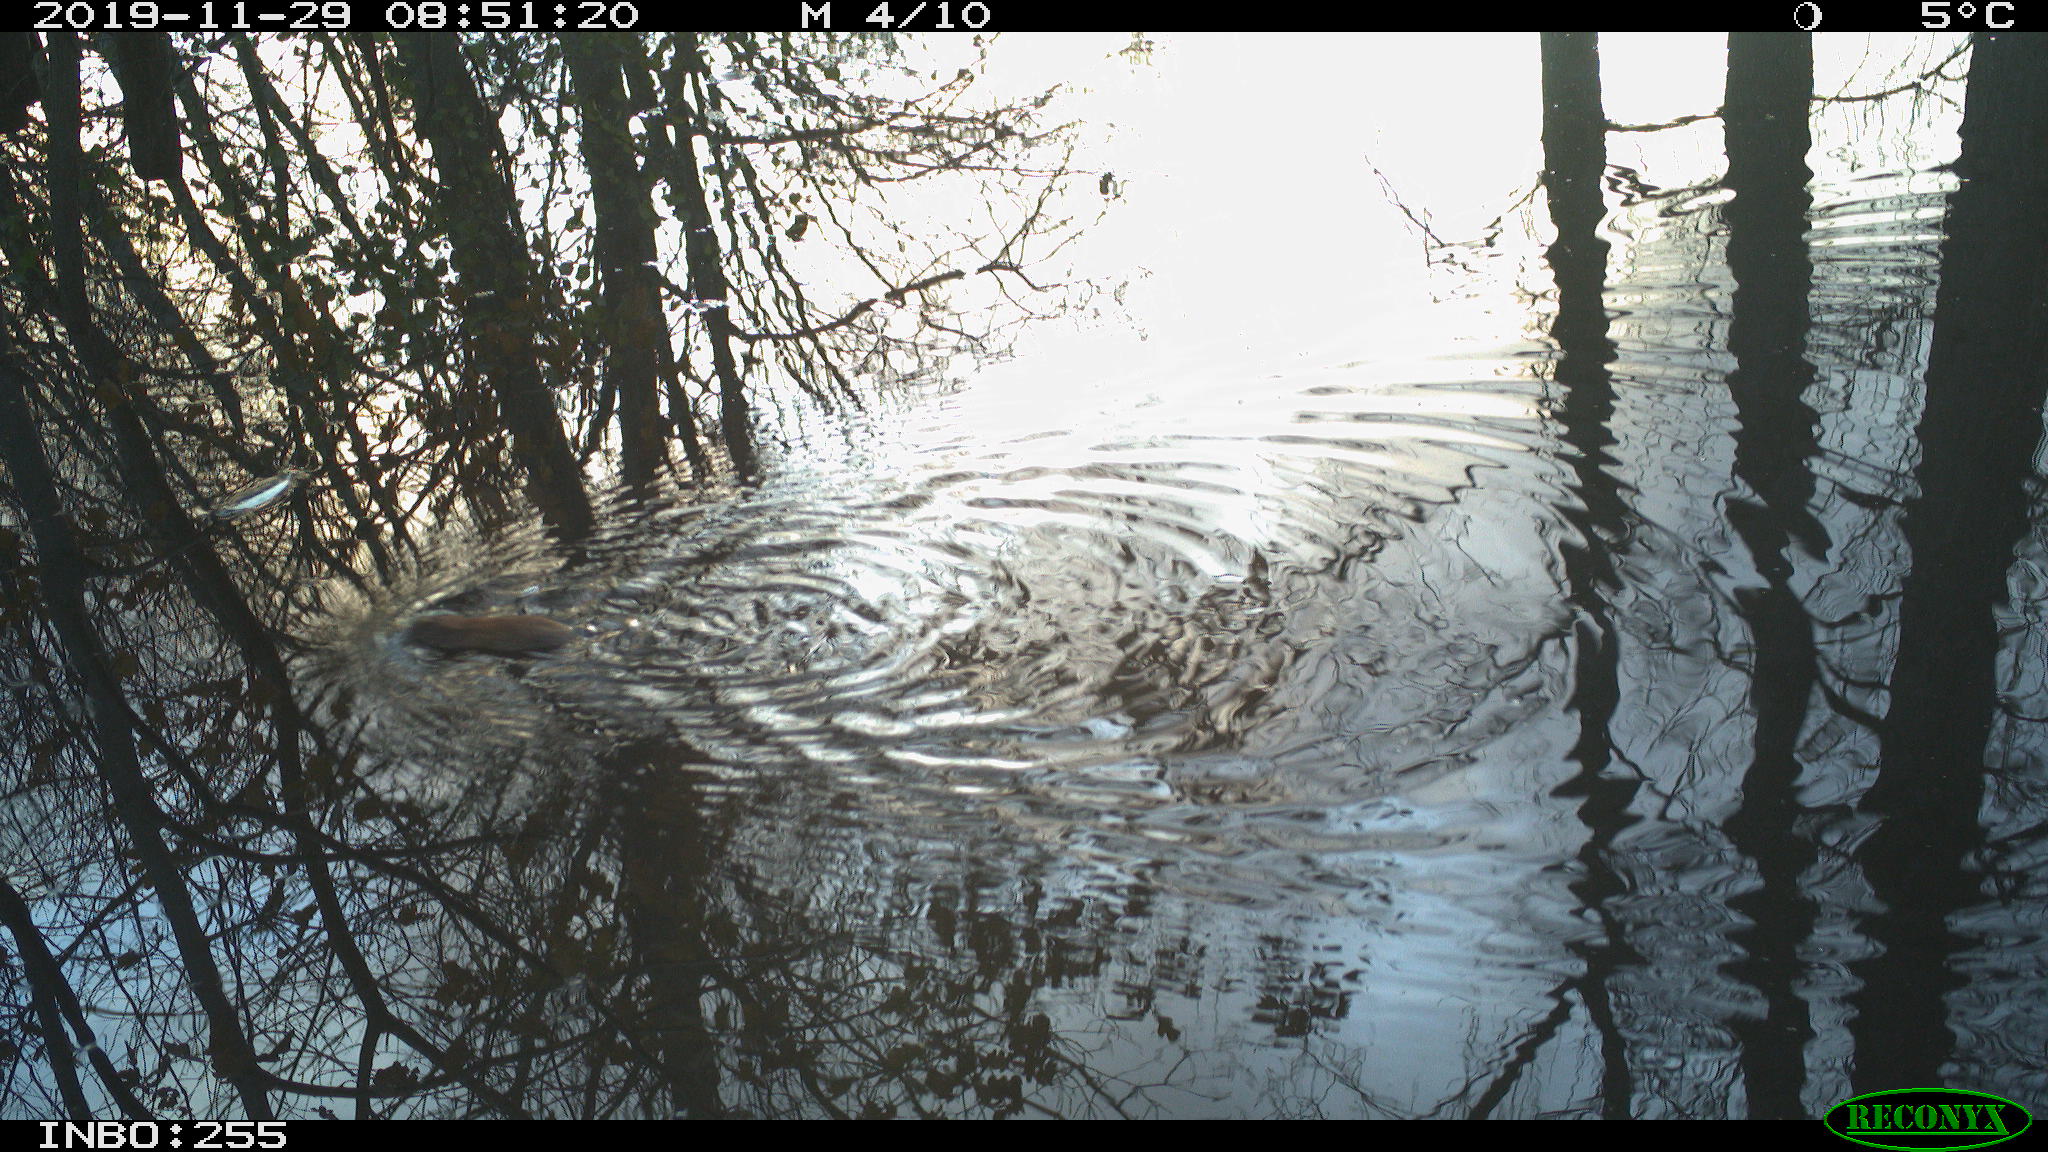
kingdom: Animalia
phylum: Chordata
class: Mammalia
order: Rodentia
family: Muridae
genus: Rattus
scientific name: Rattus norvegicus
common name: Brown rat
